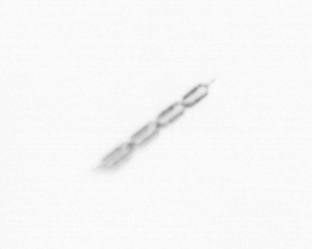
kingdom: Chromista
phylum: Ochrophyta
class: Bacillariophyceae
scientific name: Bacillariophyceae
